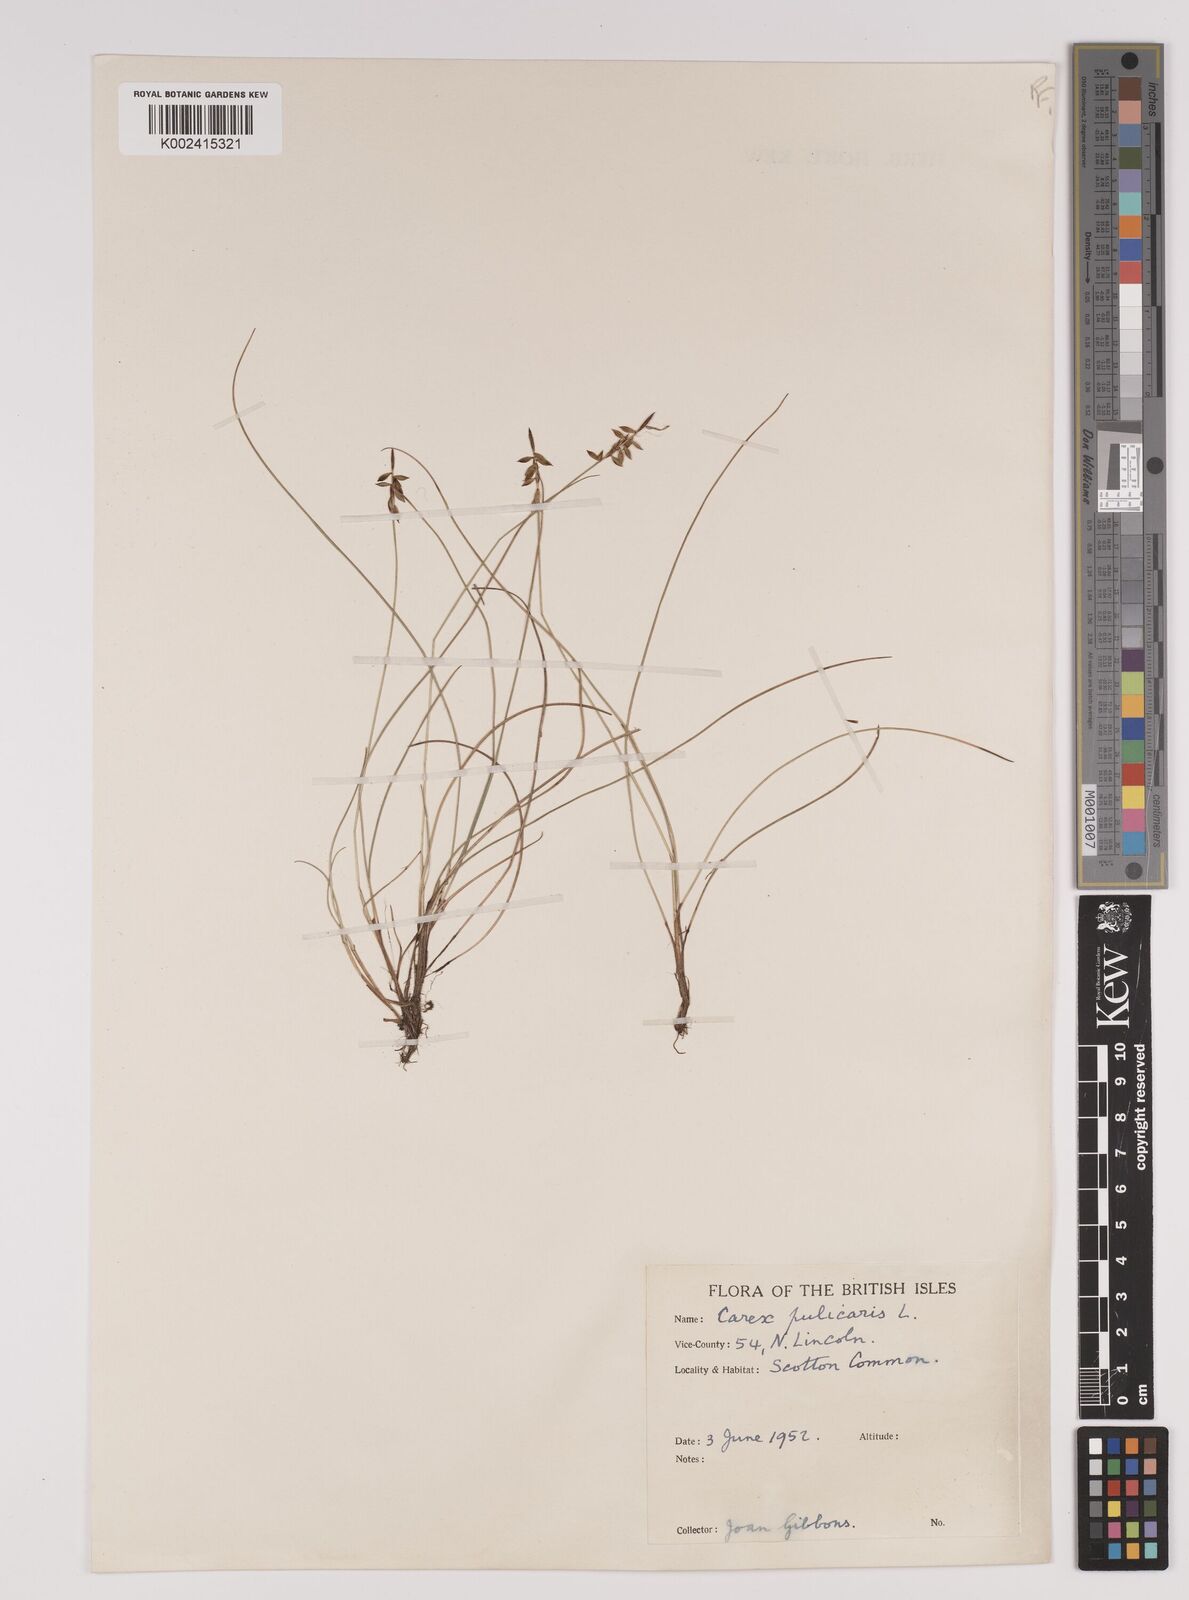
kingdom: Plantae
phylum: Tracheophyta
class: Liliopsida
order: Poales
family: Cyperaceae
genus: Carex
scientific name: Carex pulicaris
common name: Flea sedge
